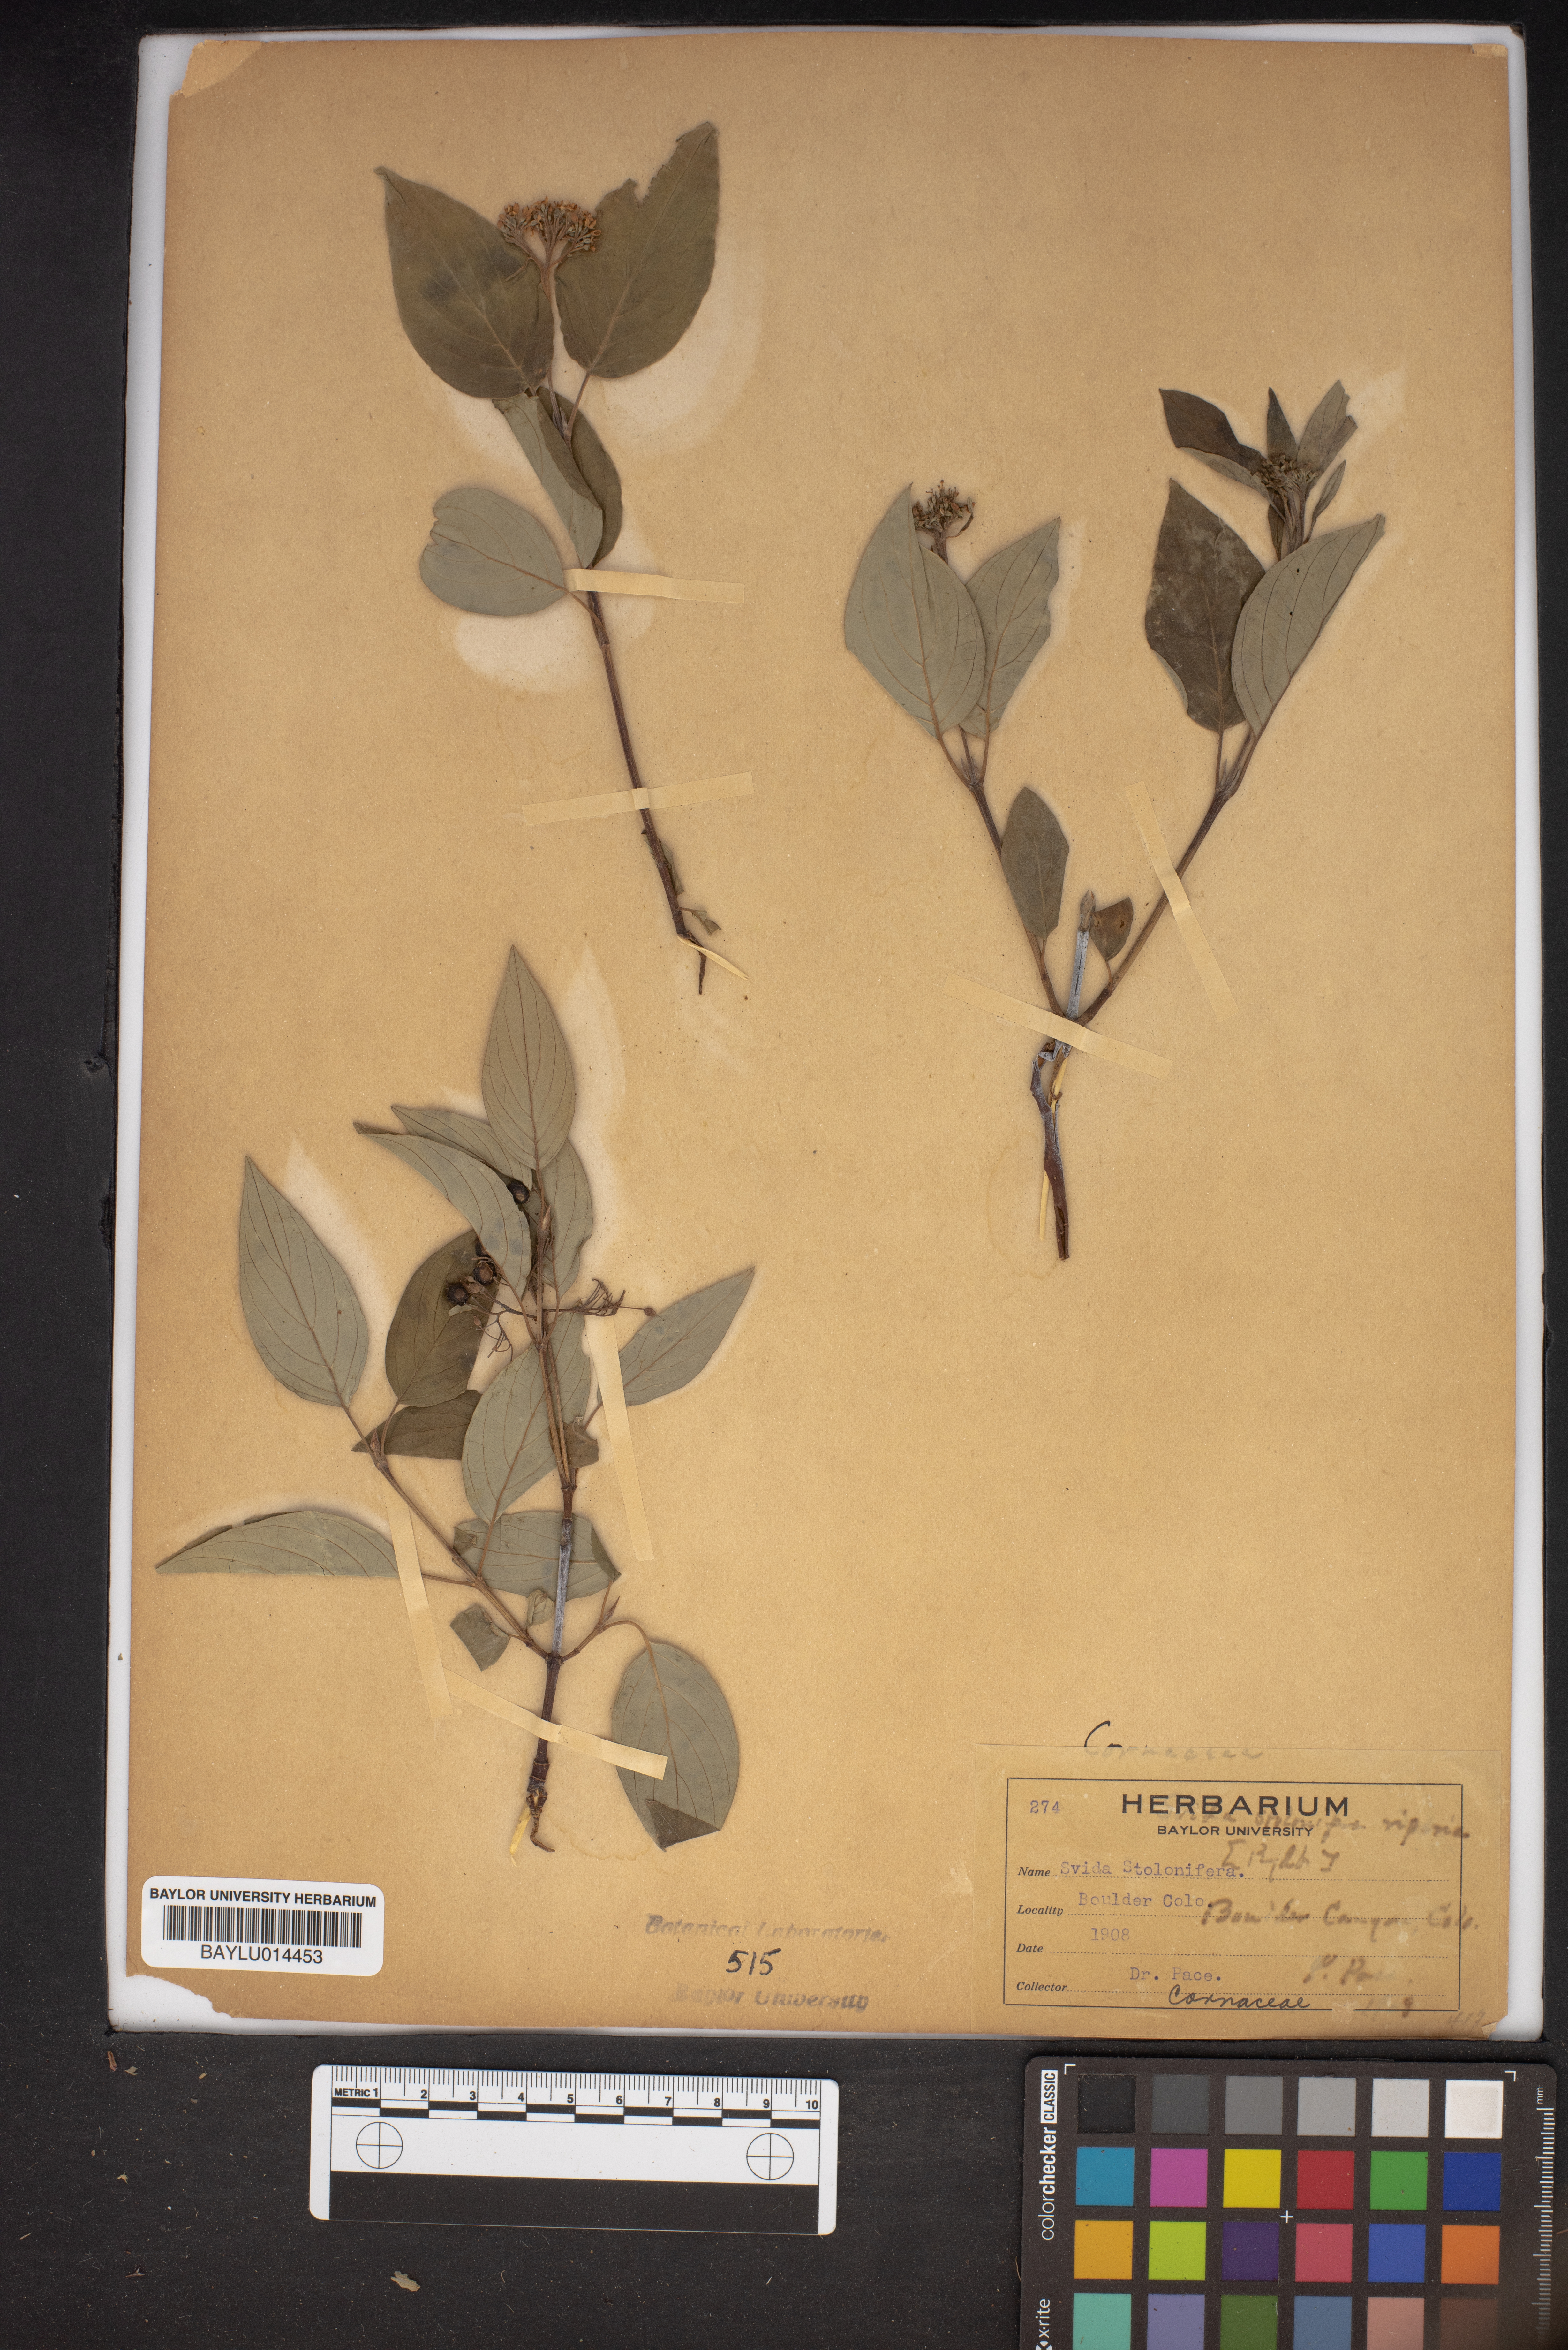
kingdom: Plantae
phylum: Tracheophyta
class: Magnoliopsida
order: Malvales
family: Malvaceae
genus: Sida
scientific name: Sida jussieana
